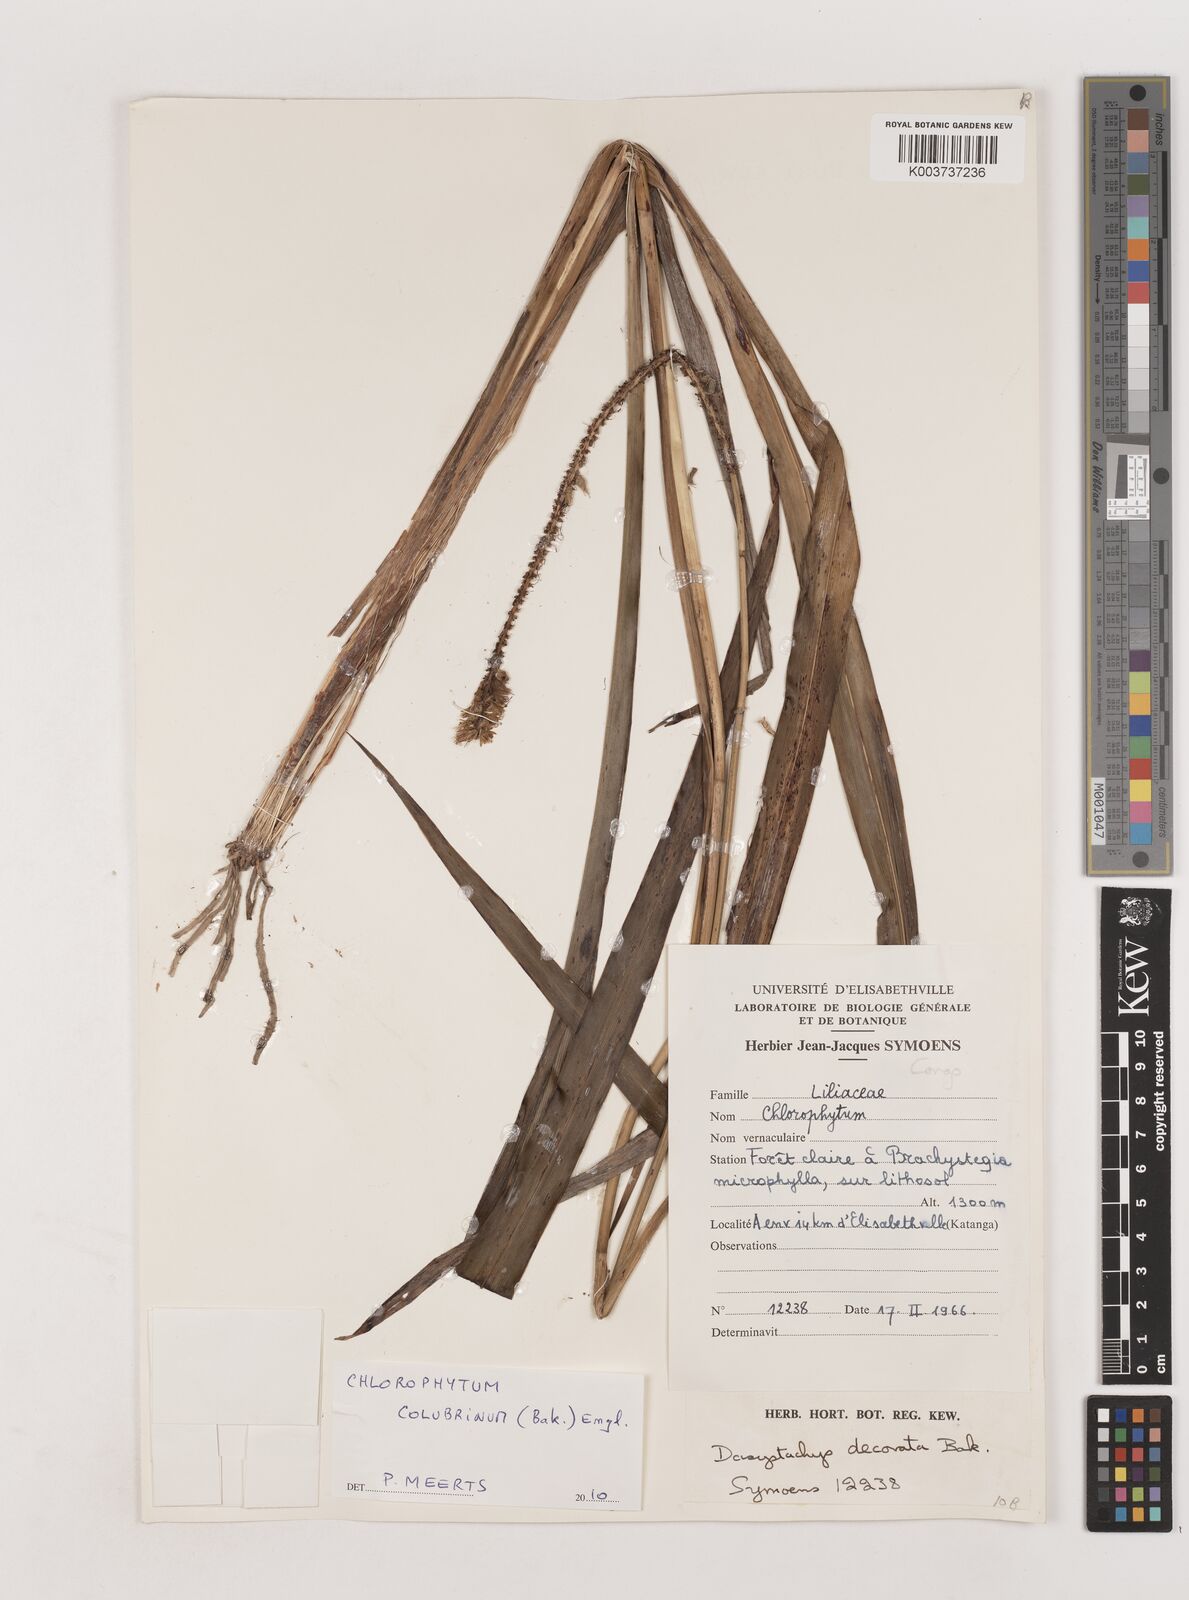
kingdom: Plantae
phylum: Tracheophyta
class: Liliopsida
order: Asparagales
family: Asparagaceae
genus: Chlorophytum
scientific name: Chlorophytum colubrinum
